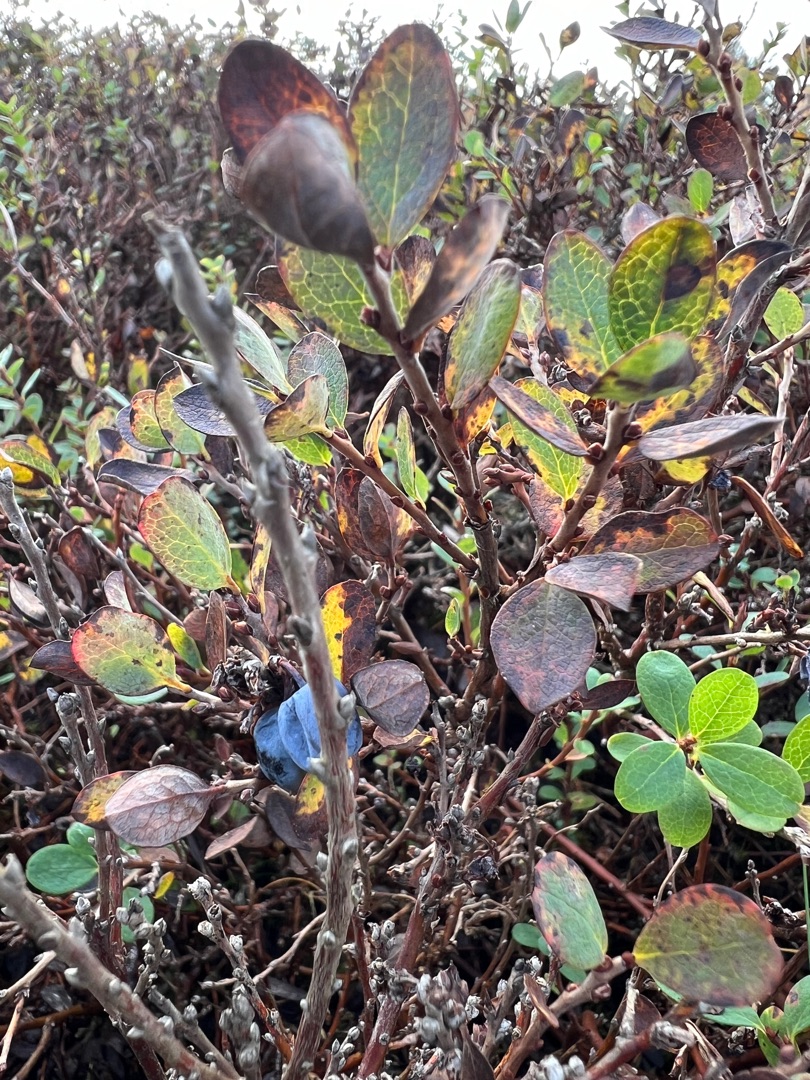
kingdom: Plantae
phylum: Tracheophyta
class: Magnoliopsida
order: Ericales
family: Ericaceae
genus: Vaccinium
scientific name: Vaccinium uliginosum
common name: Mose-bølle
